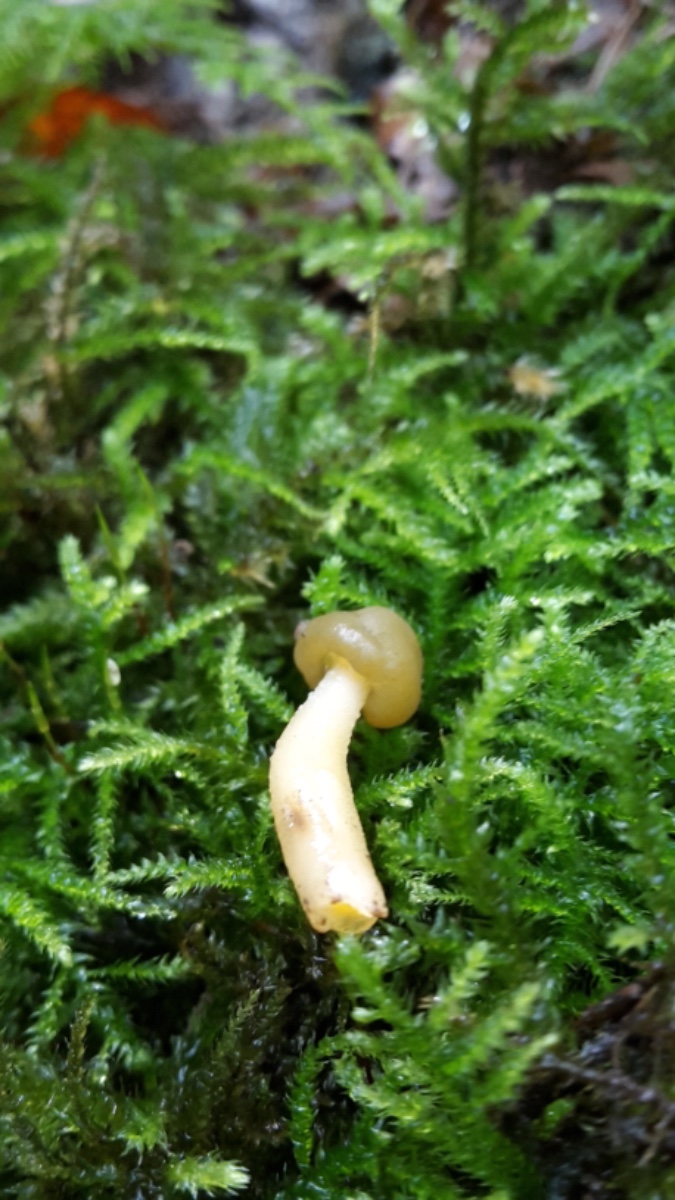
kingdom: Fungi
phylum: Ascomycota
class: Leotiomycetes
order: Leotiales
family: Leotiaceae
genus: Leotia
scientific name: Leotia lubrica
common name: ravsvamp
